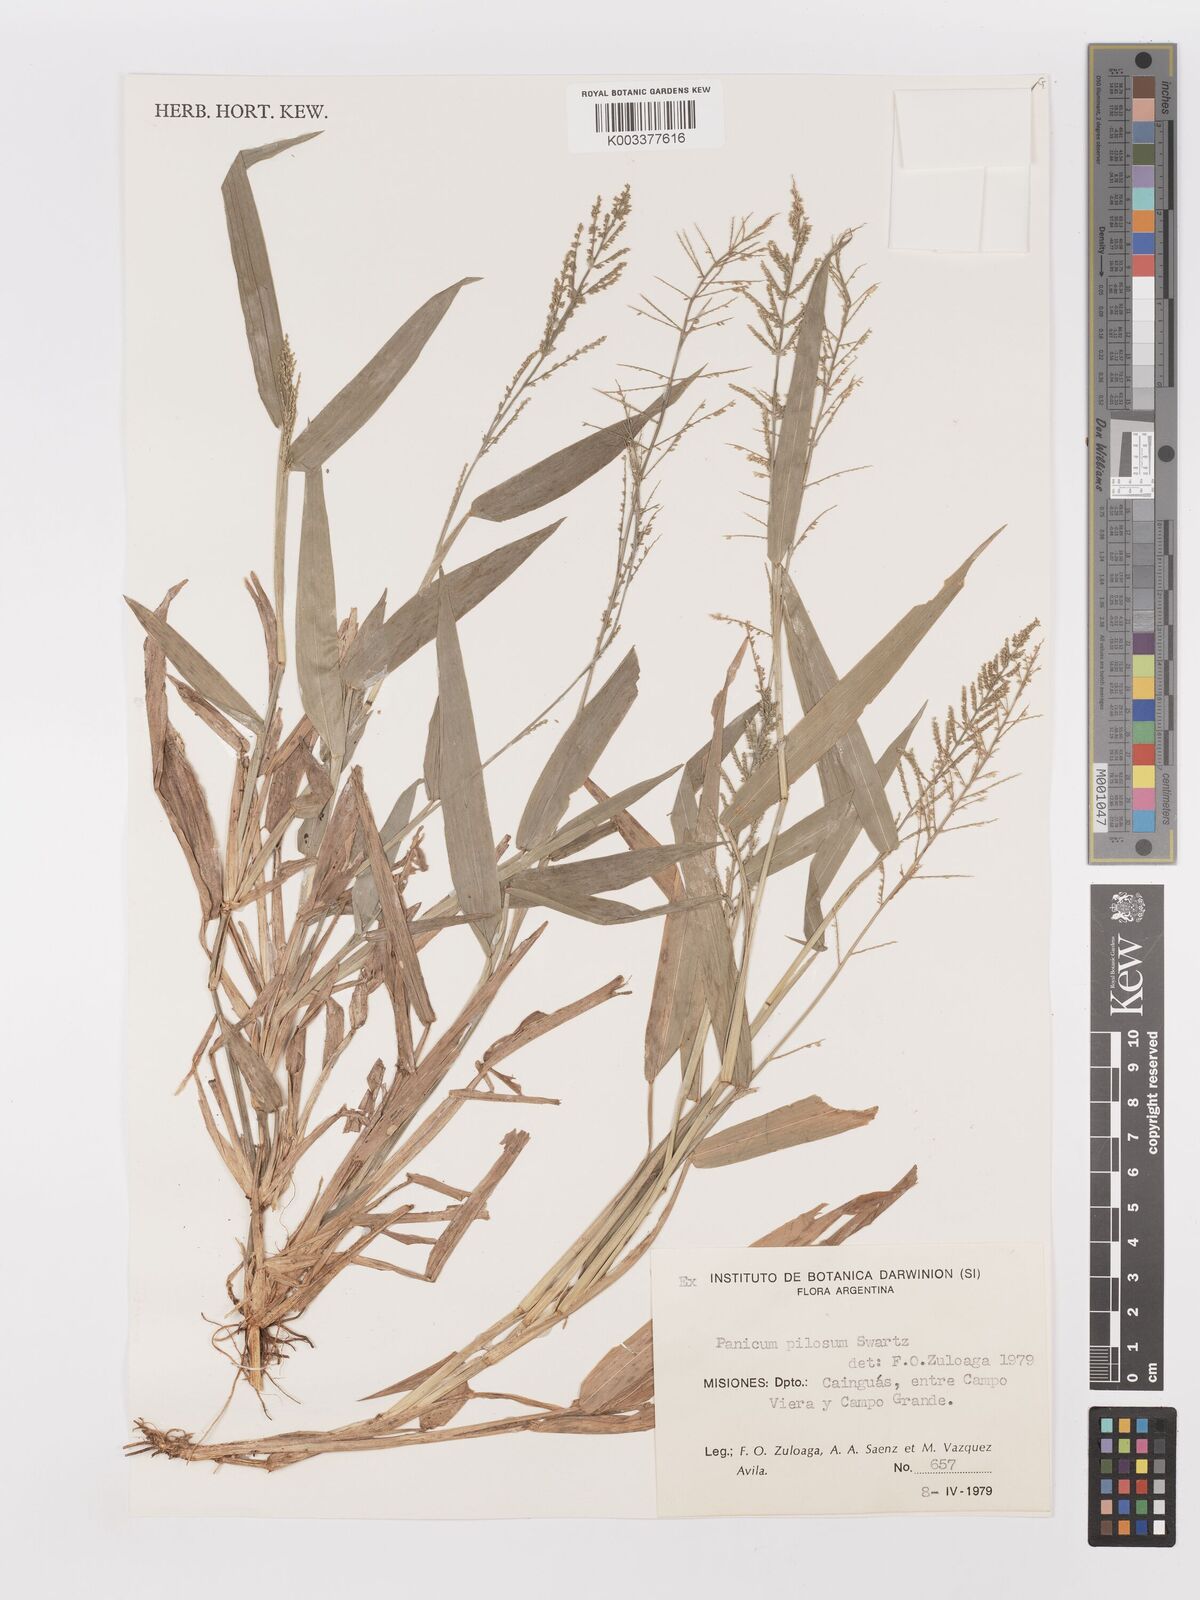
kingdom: Plantae
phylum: Tracheophyta
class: Liliopsida
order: Poales
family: Poaceae
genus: Panicum
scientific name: Panicum
